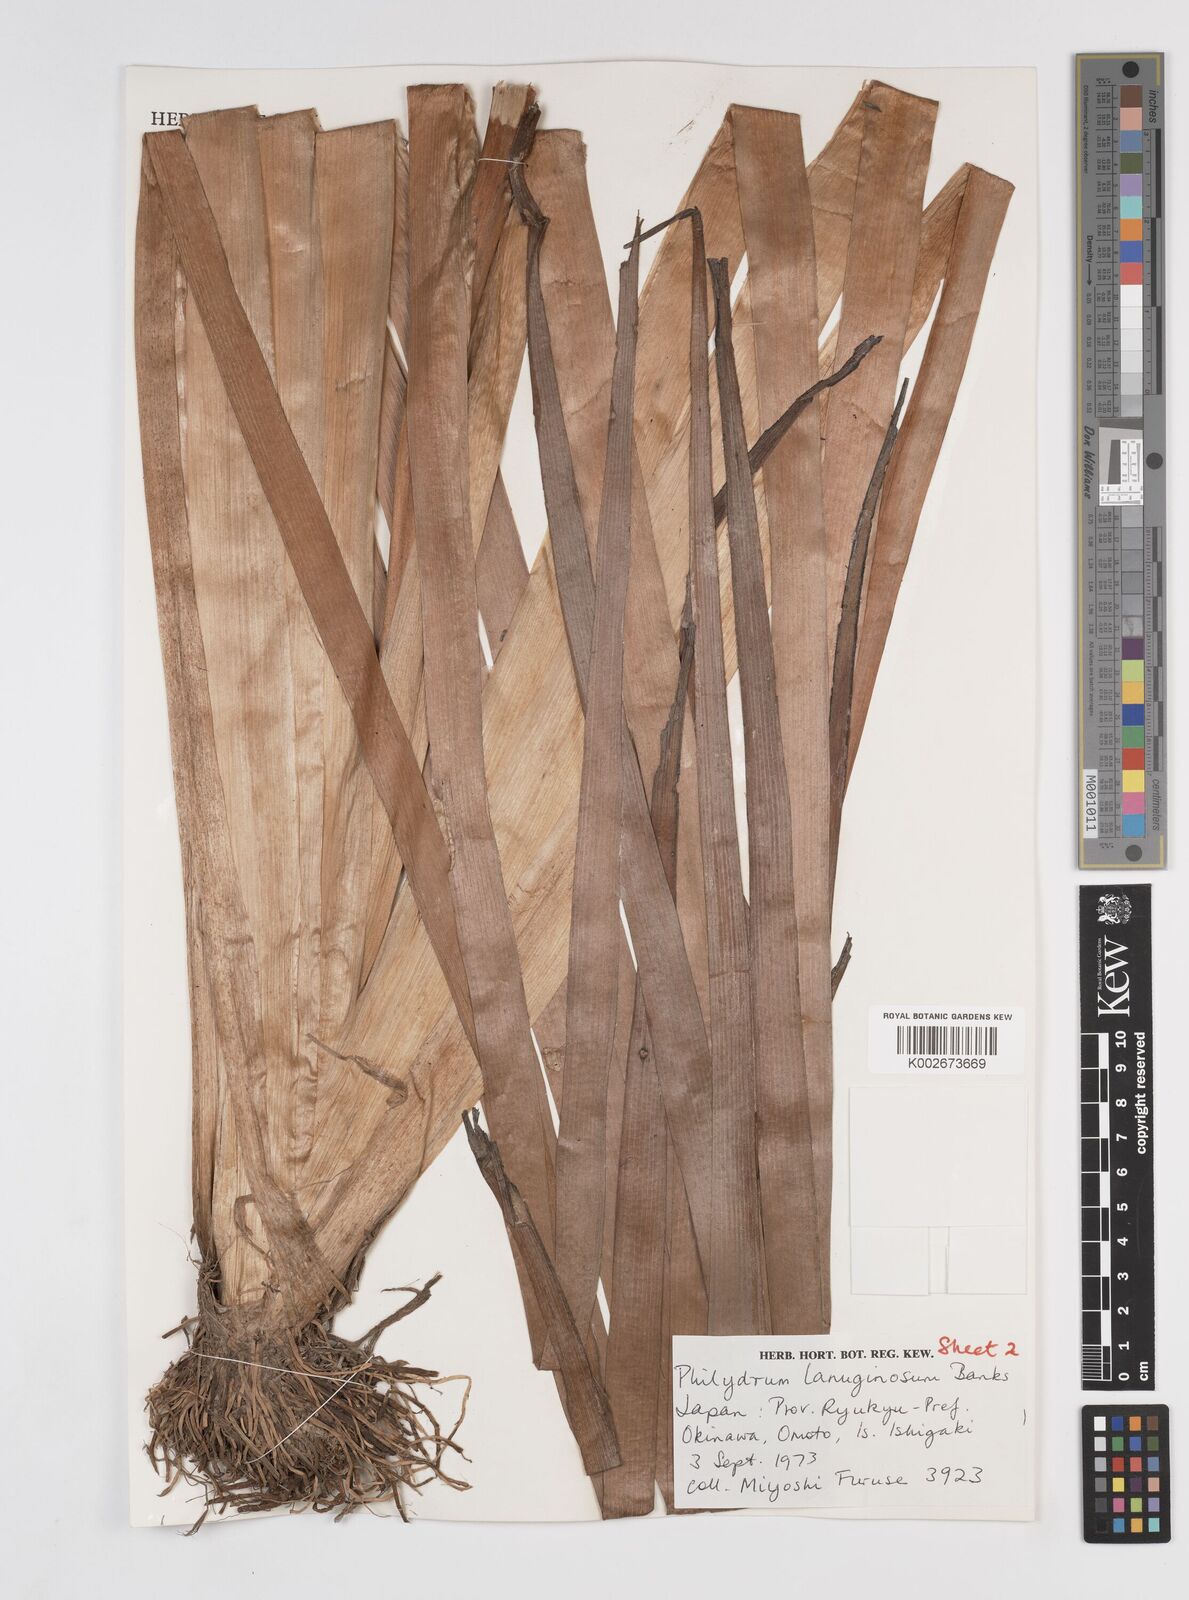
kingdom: Plantae
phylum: Tracheophyta
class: Liliopsida
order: Commelinales
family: Philydraceae
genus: Philydrum
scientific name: Philydrum lanuginosum
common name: Woolly frog's mouth
